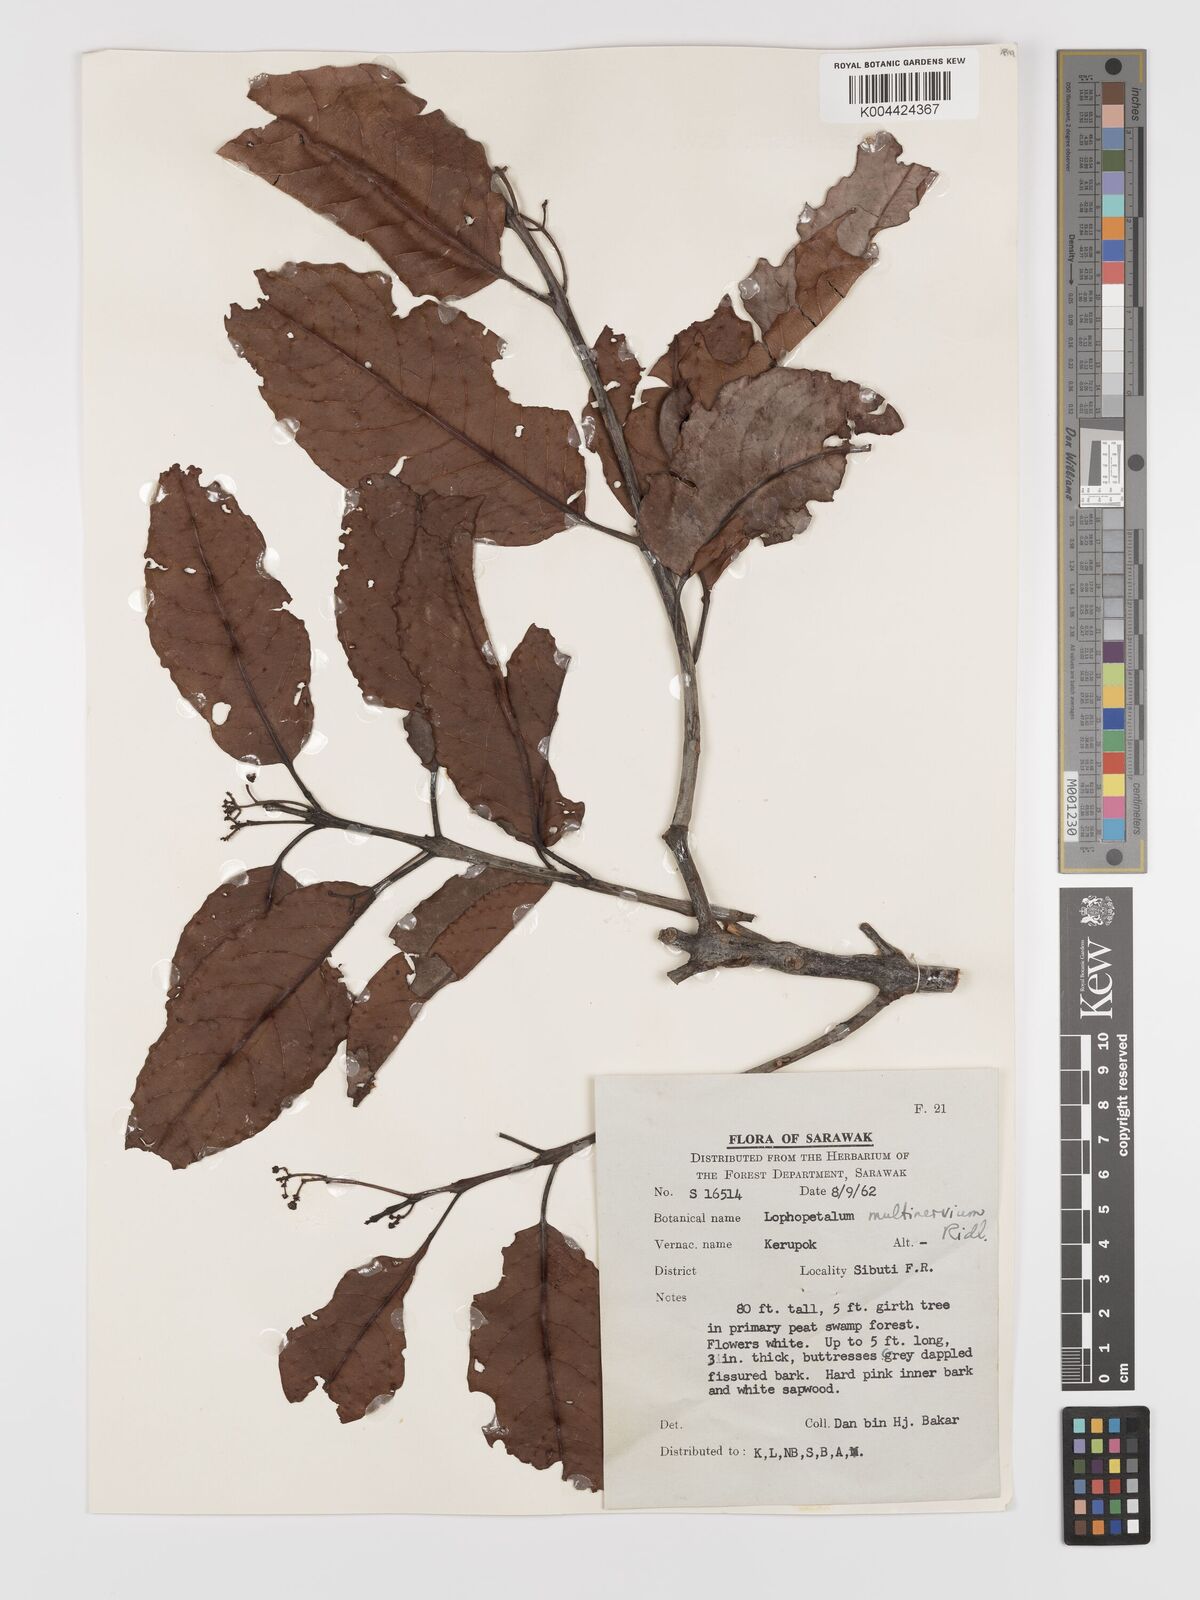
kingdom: Plantae
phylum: Tracheophyta
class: Magnoliopsida
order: Celastrales
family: Celastraceae
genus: Lophopetalum
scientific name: Lophopetalum multinervium
